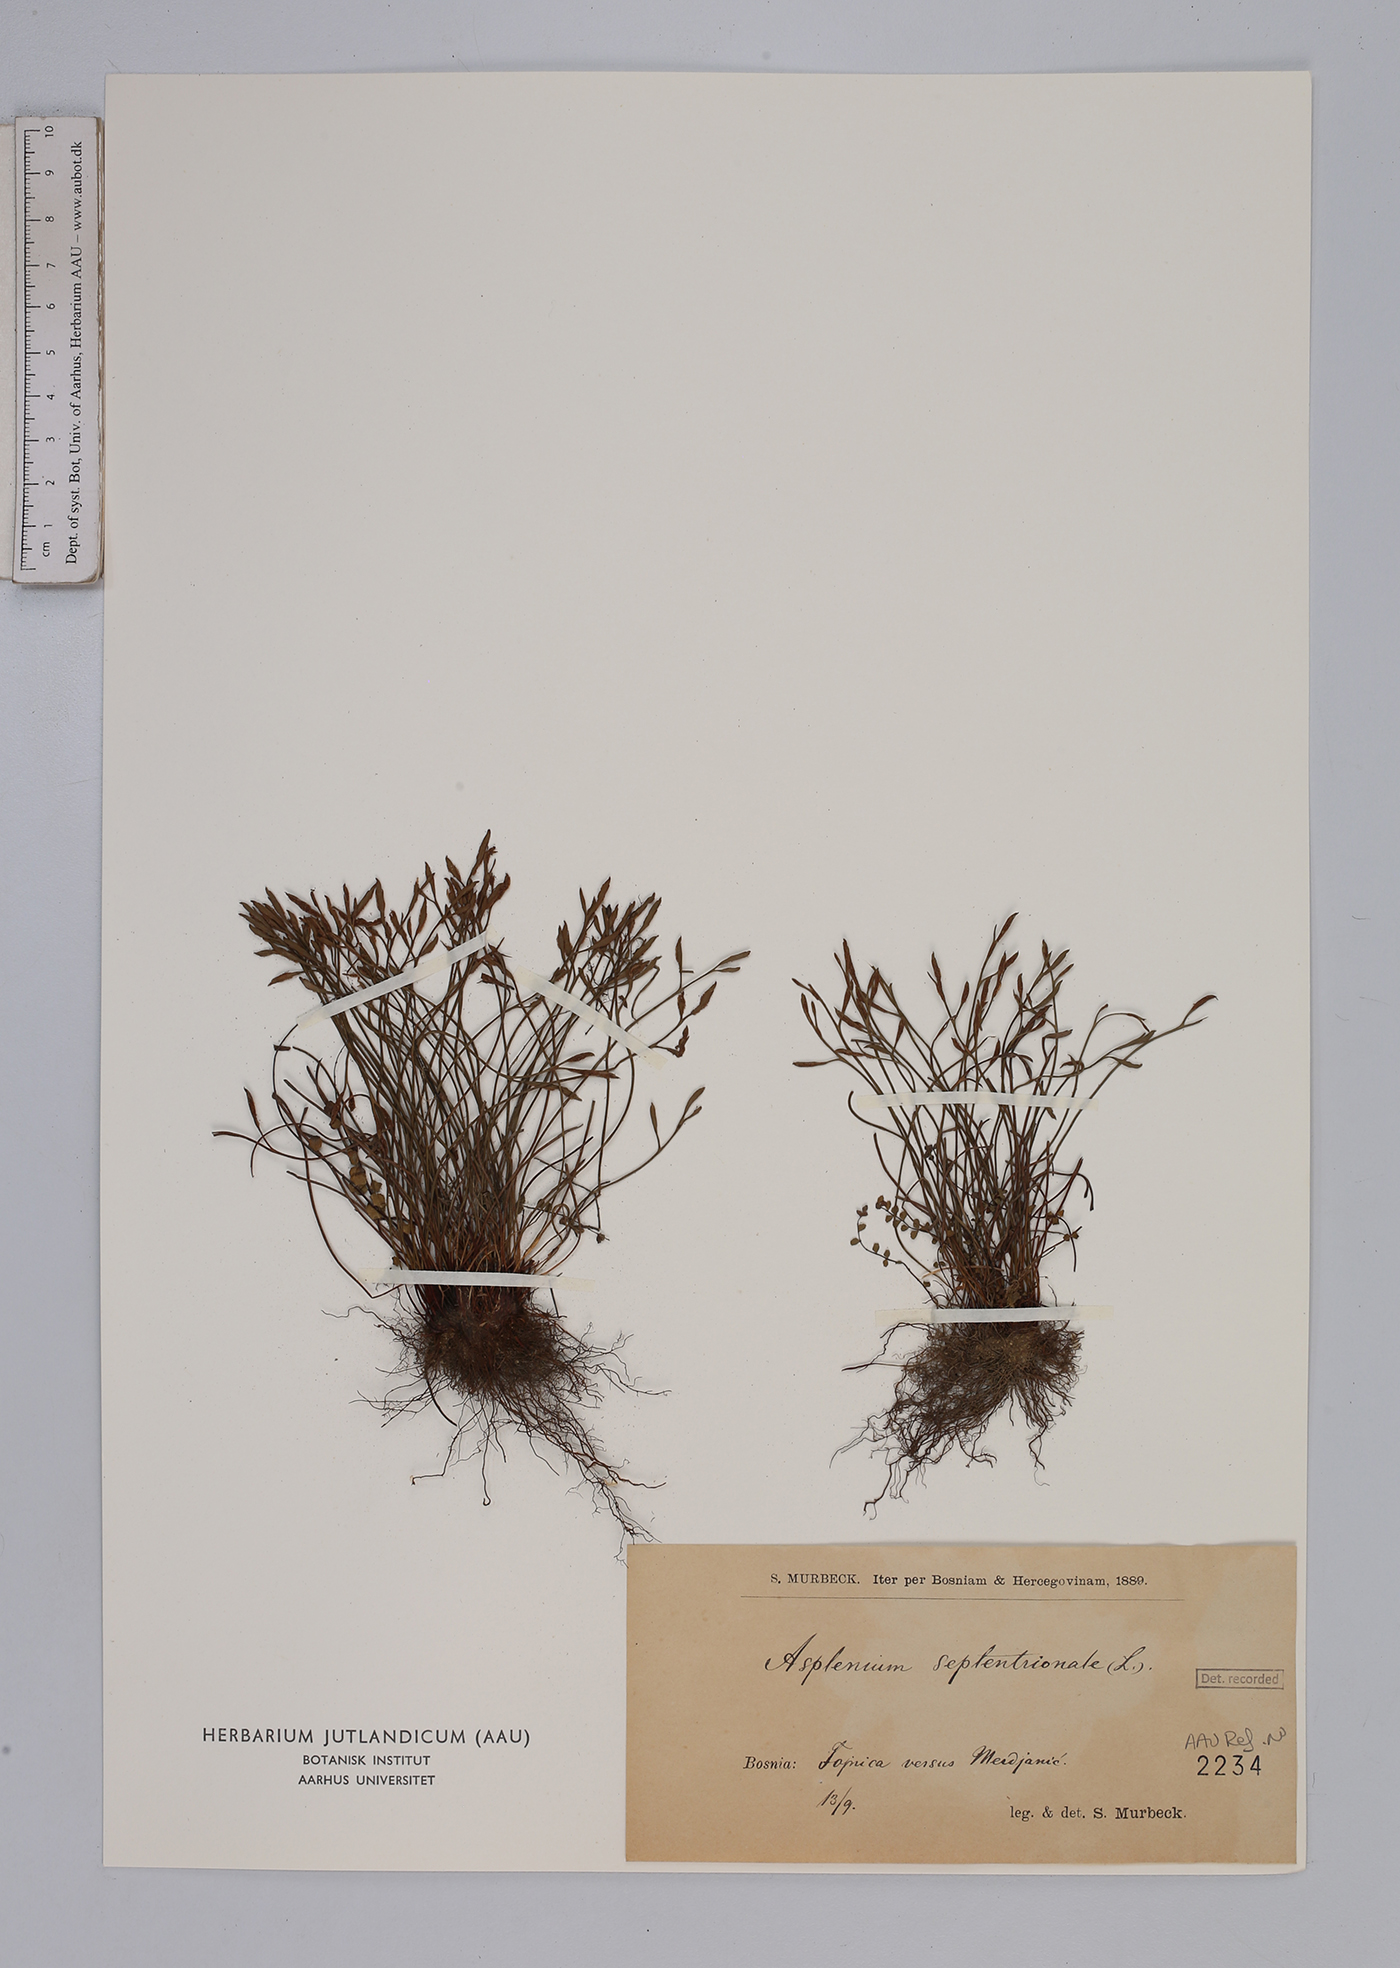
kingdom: Plantae
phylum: Tracheophyta
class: Polypodiopsida
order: Polypodiales
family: Aspleniaceae
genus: Asplenium
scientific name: Asplenium septentrionale
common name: Forked spleenwort
